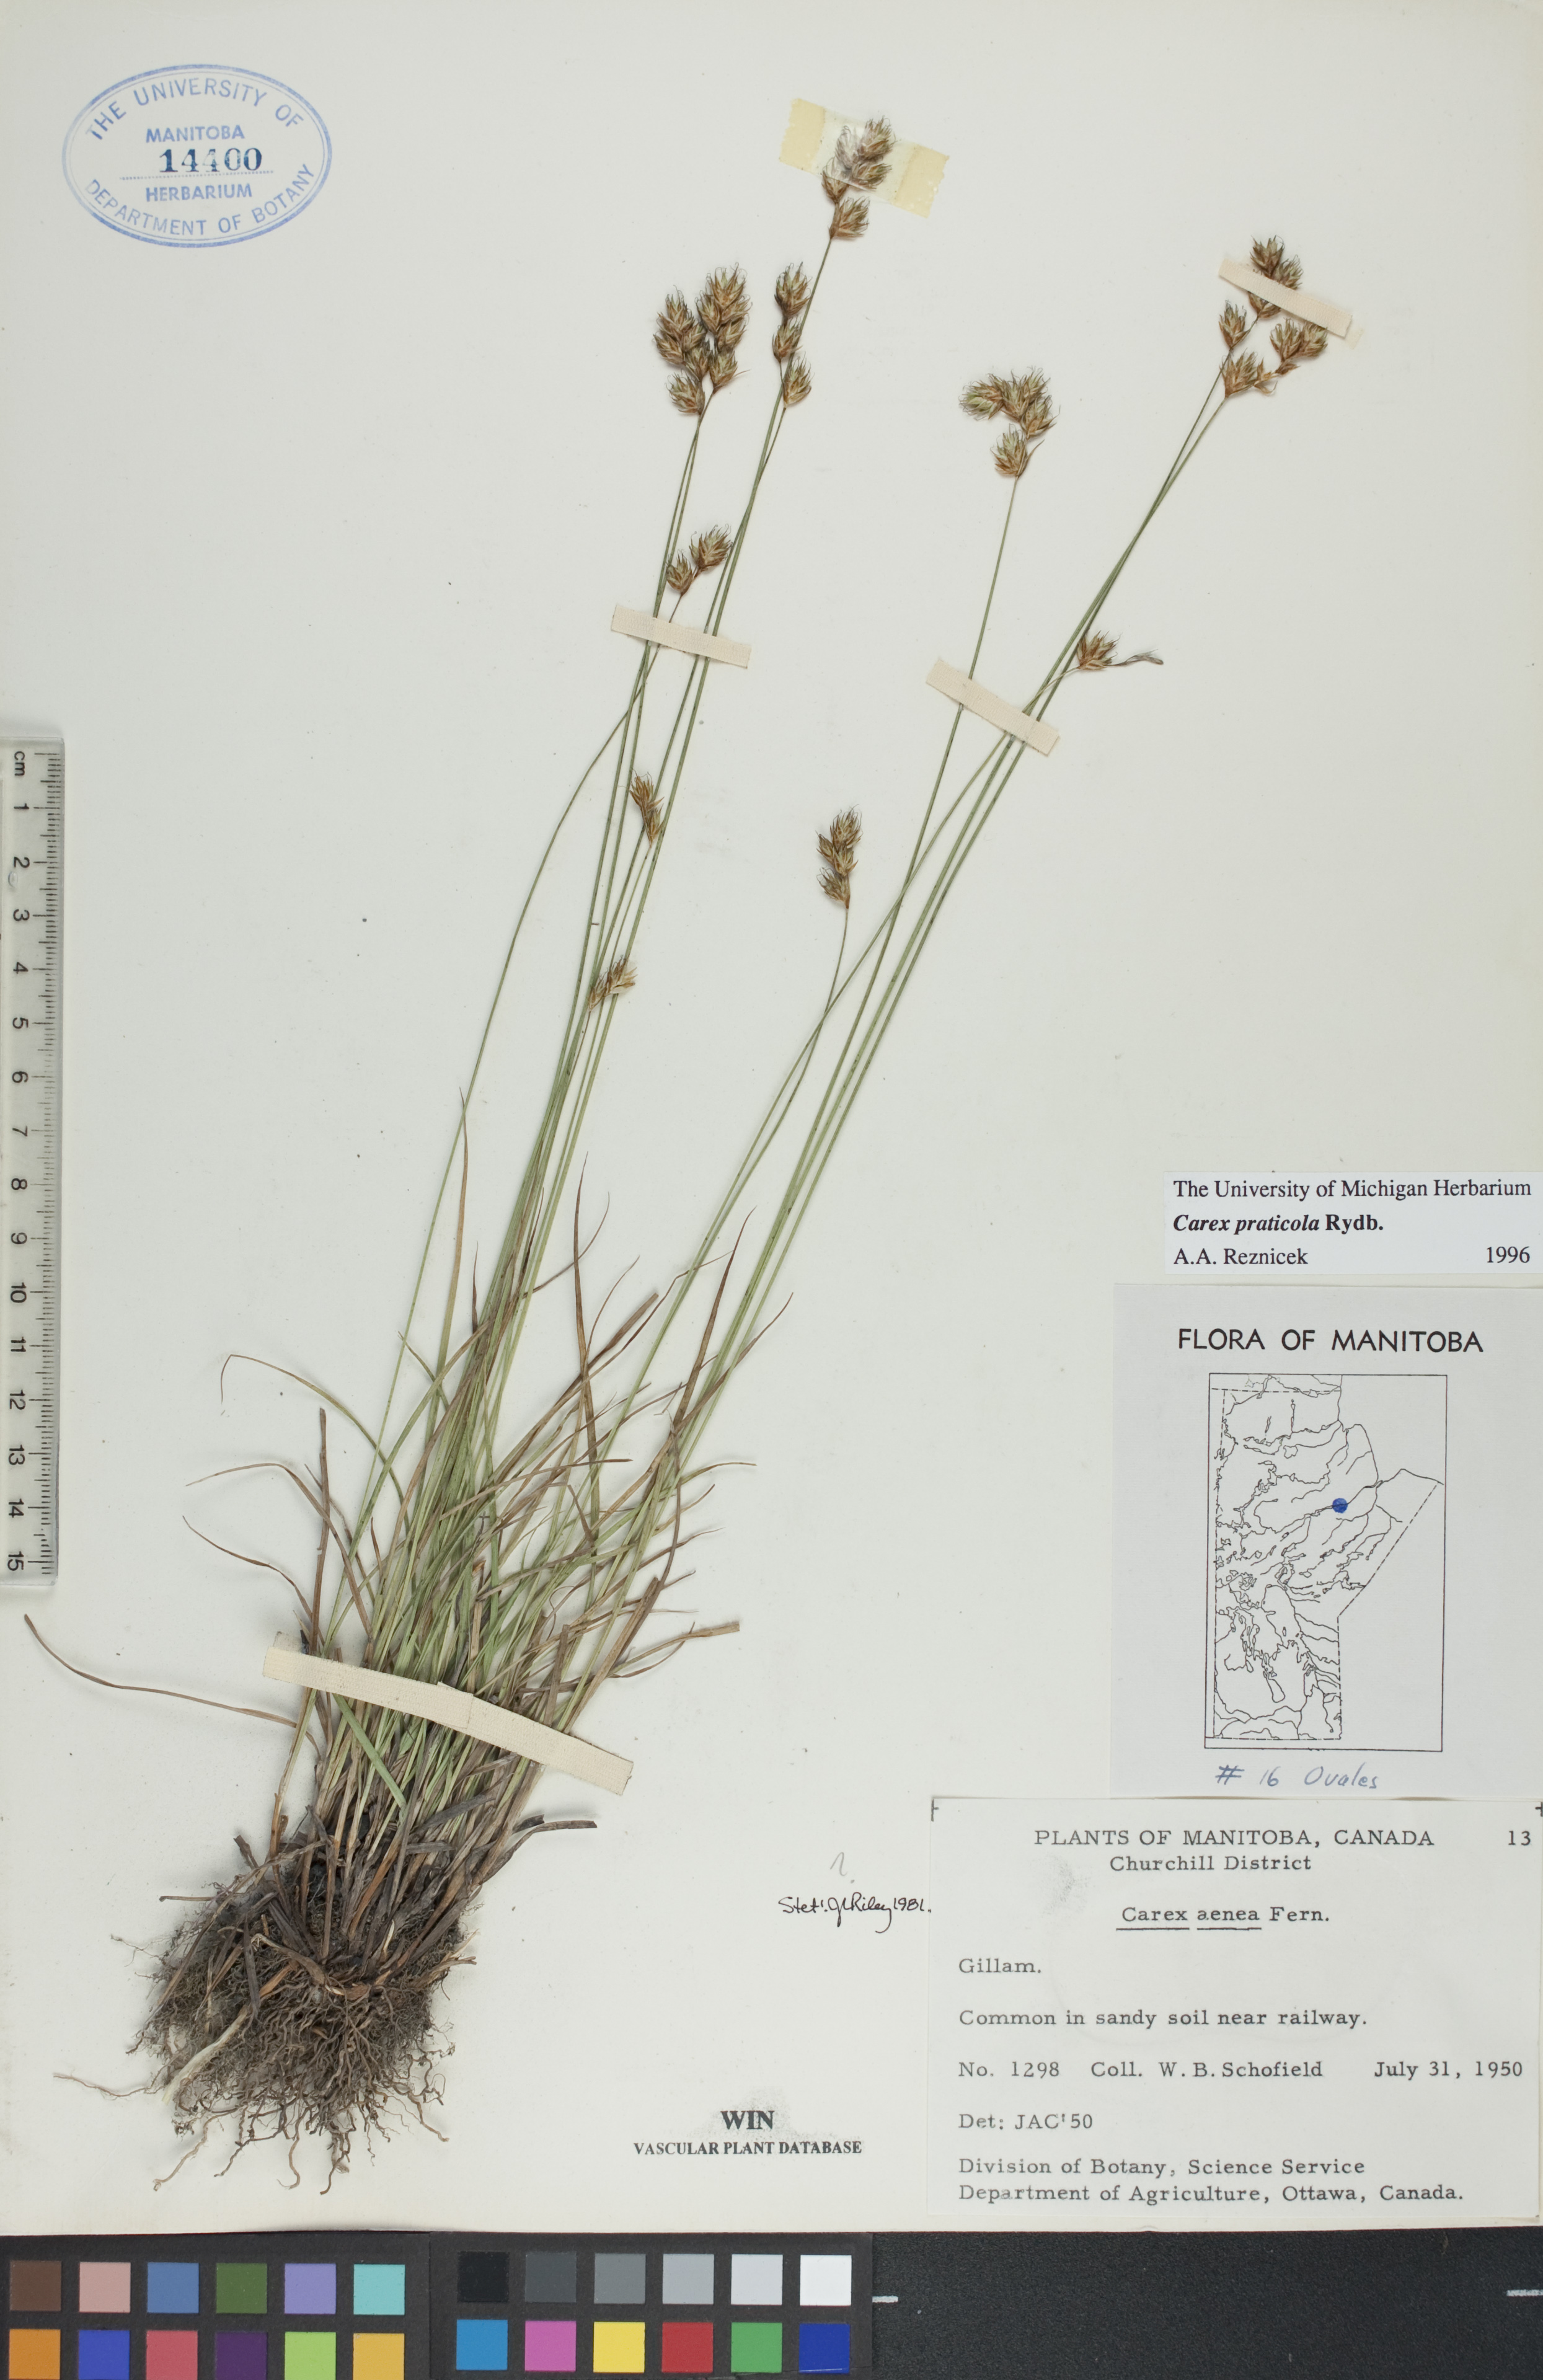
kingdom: Plantae
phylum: Tracheophyta
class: Liliopsida
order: Poales
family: Cyperaceae
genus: Carex
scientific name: Carex praticola
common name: Large-fruited oval sedge
